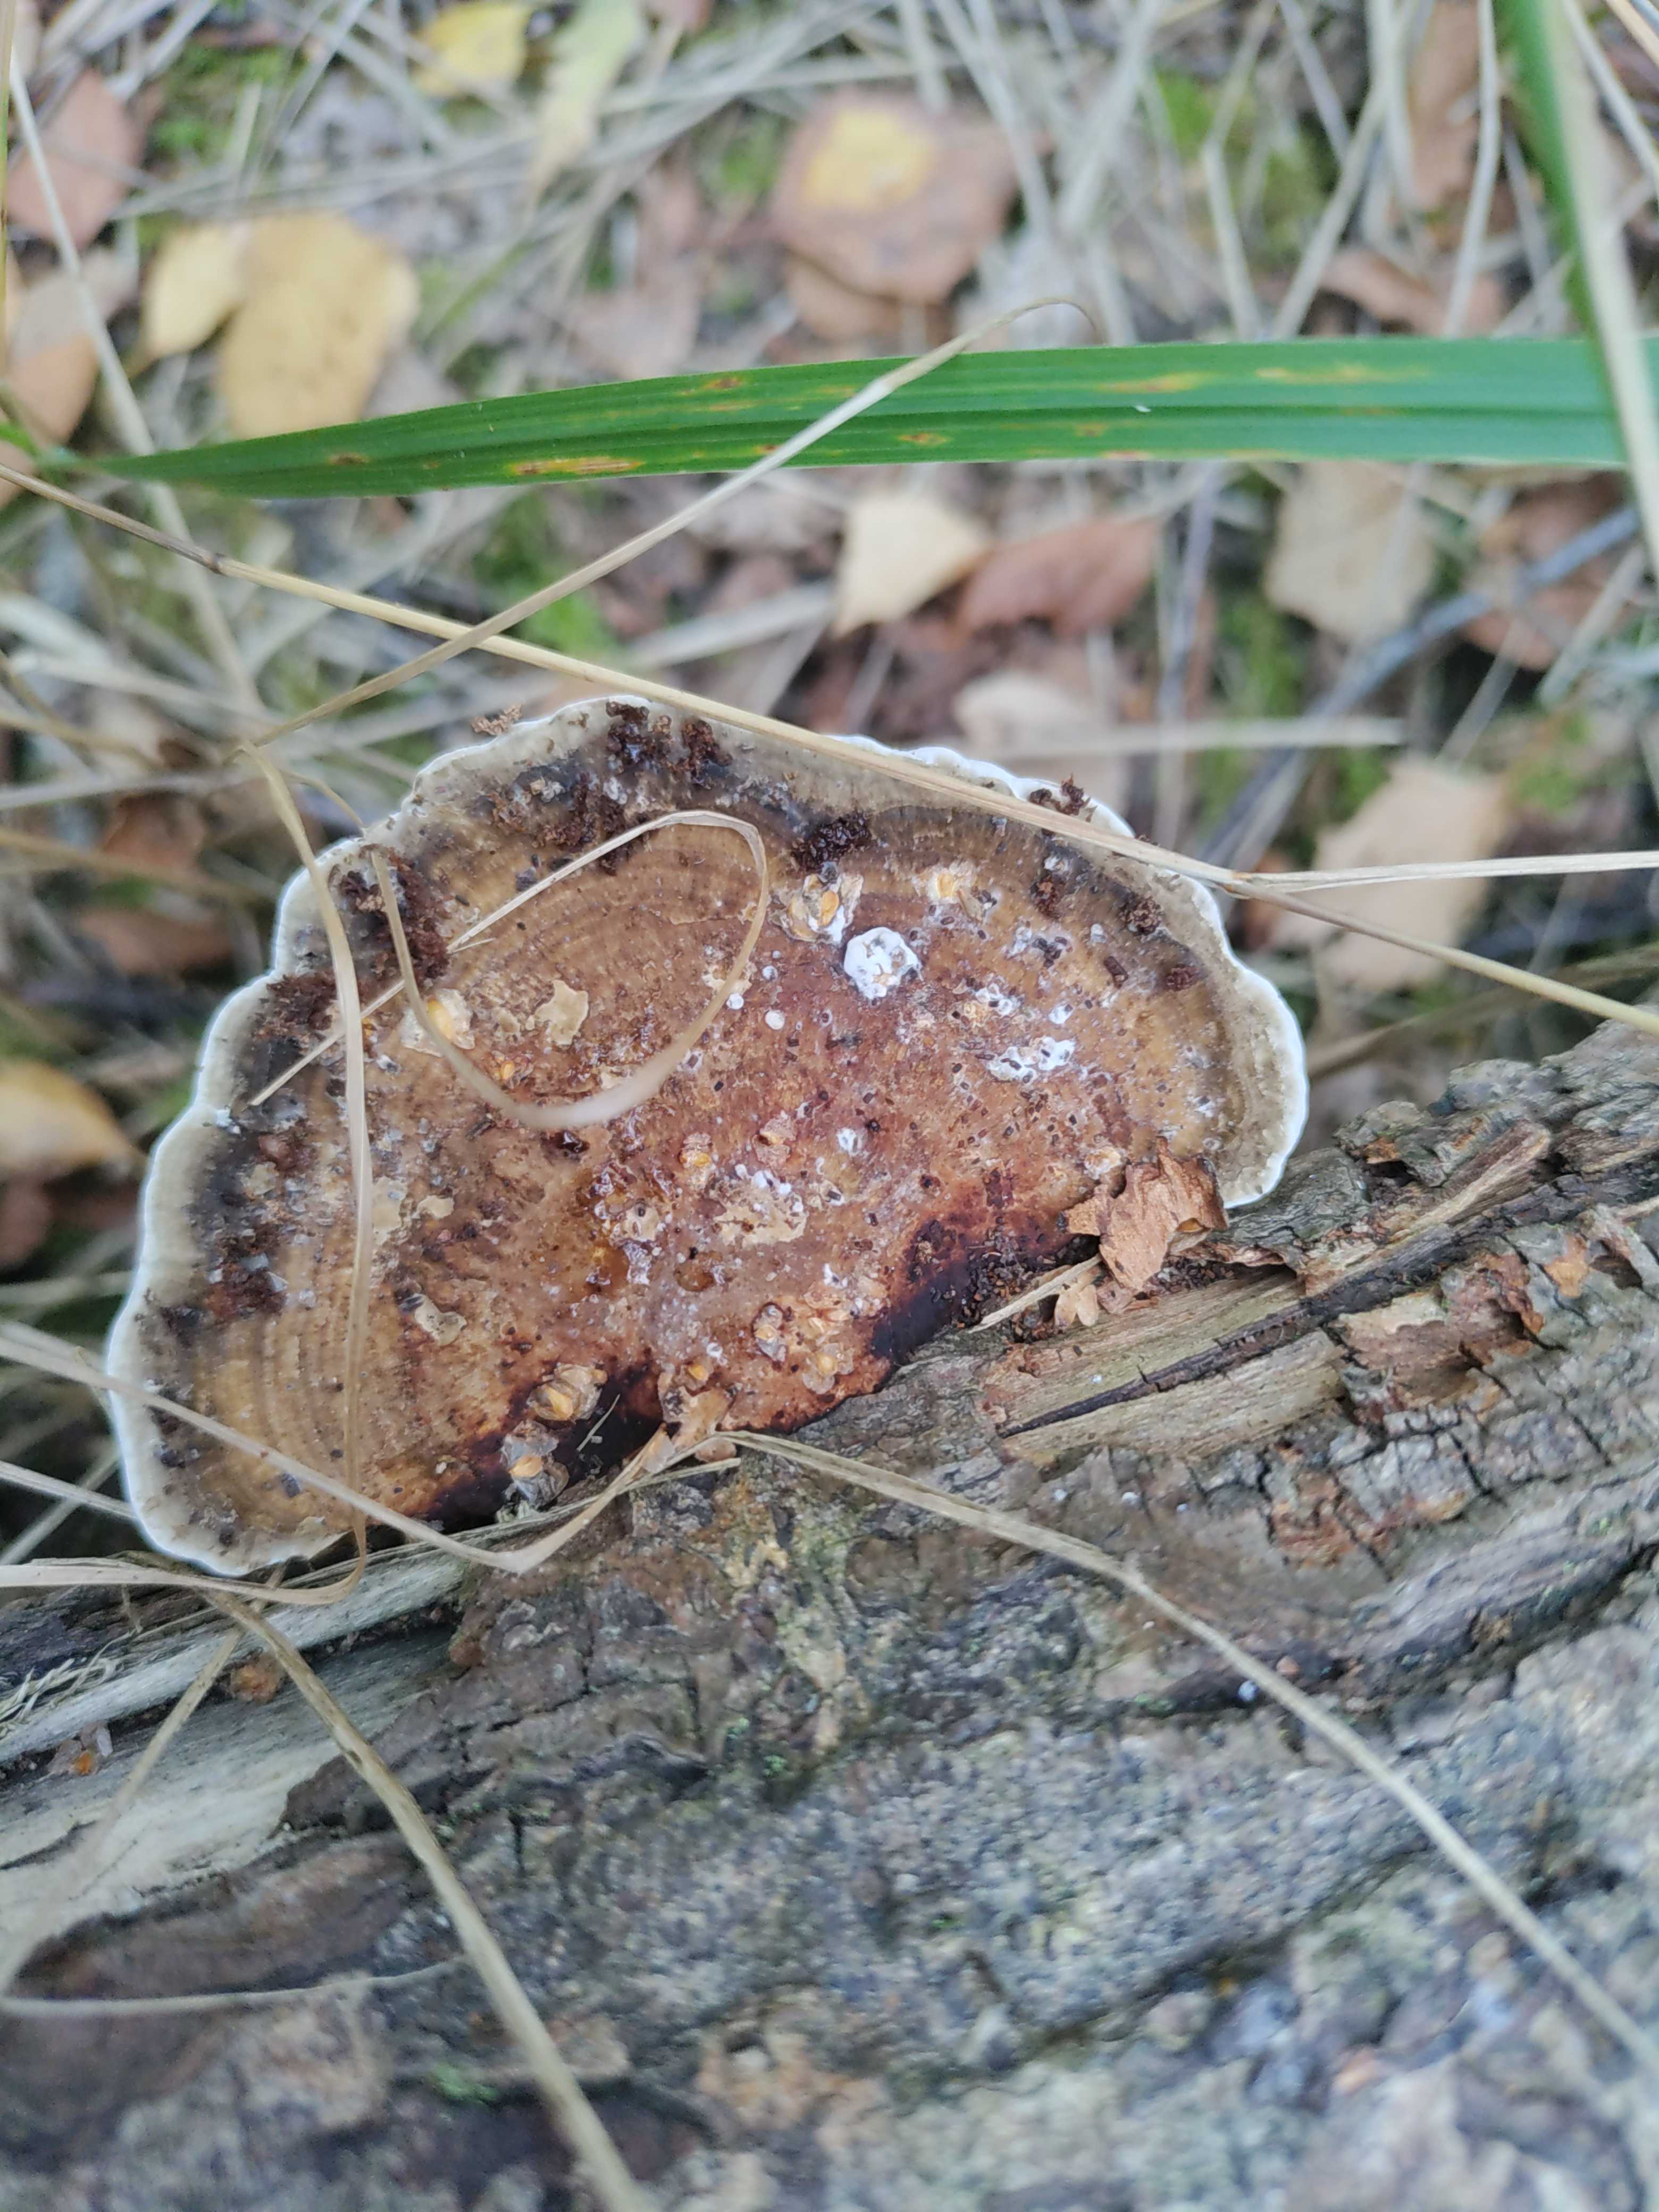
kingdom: Fungi
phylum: Basidiomycota
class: Agaricomycetes
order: Polyporales
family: Polyporaceae
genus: Daedaleopsis
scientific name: Daedaleopsis confragosa
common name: rødmende læderporesvamp
